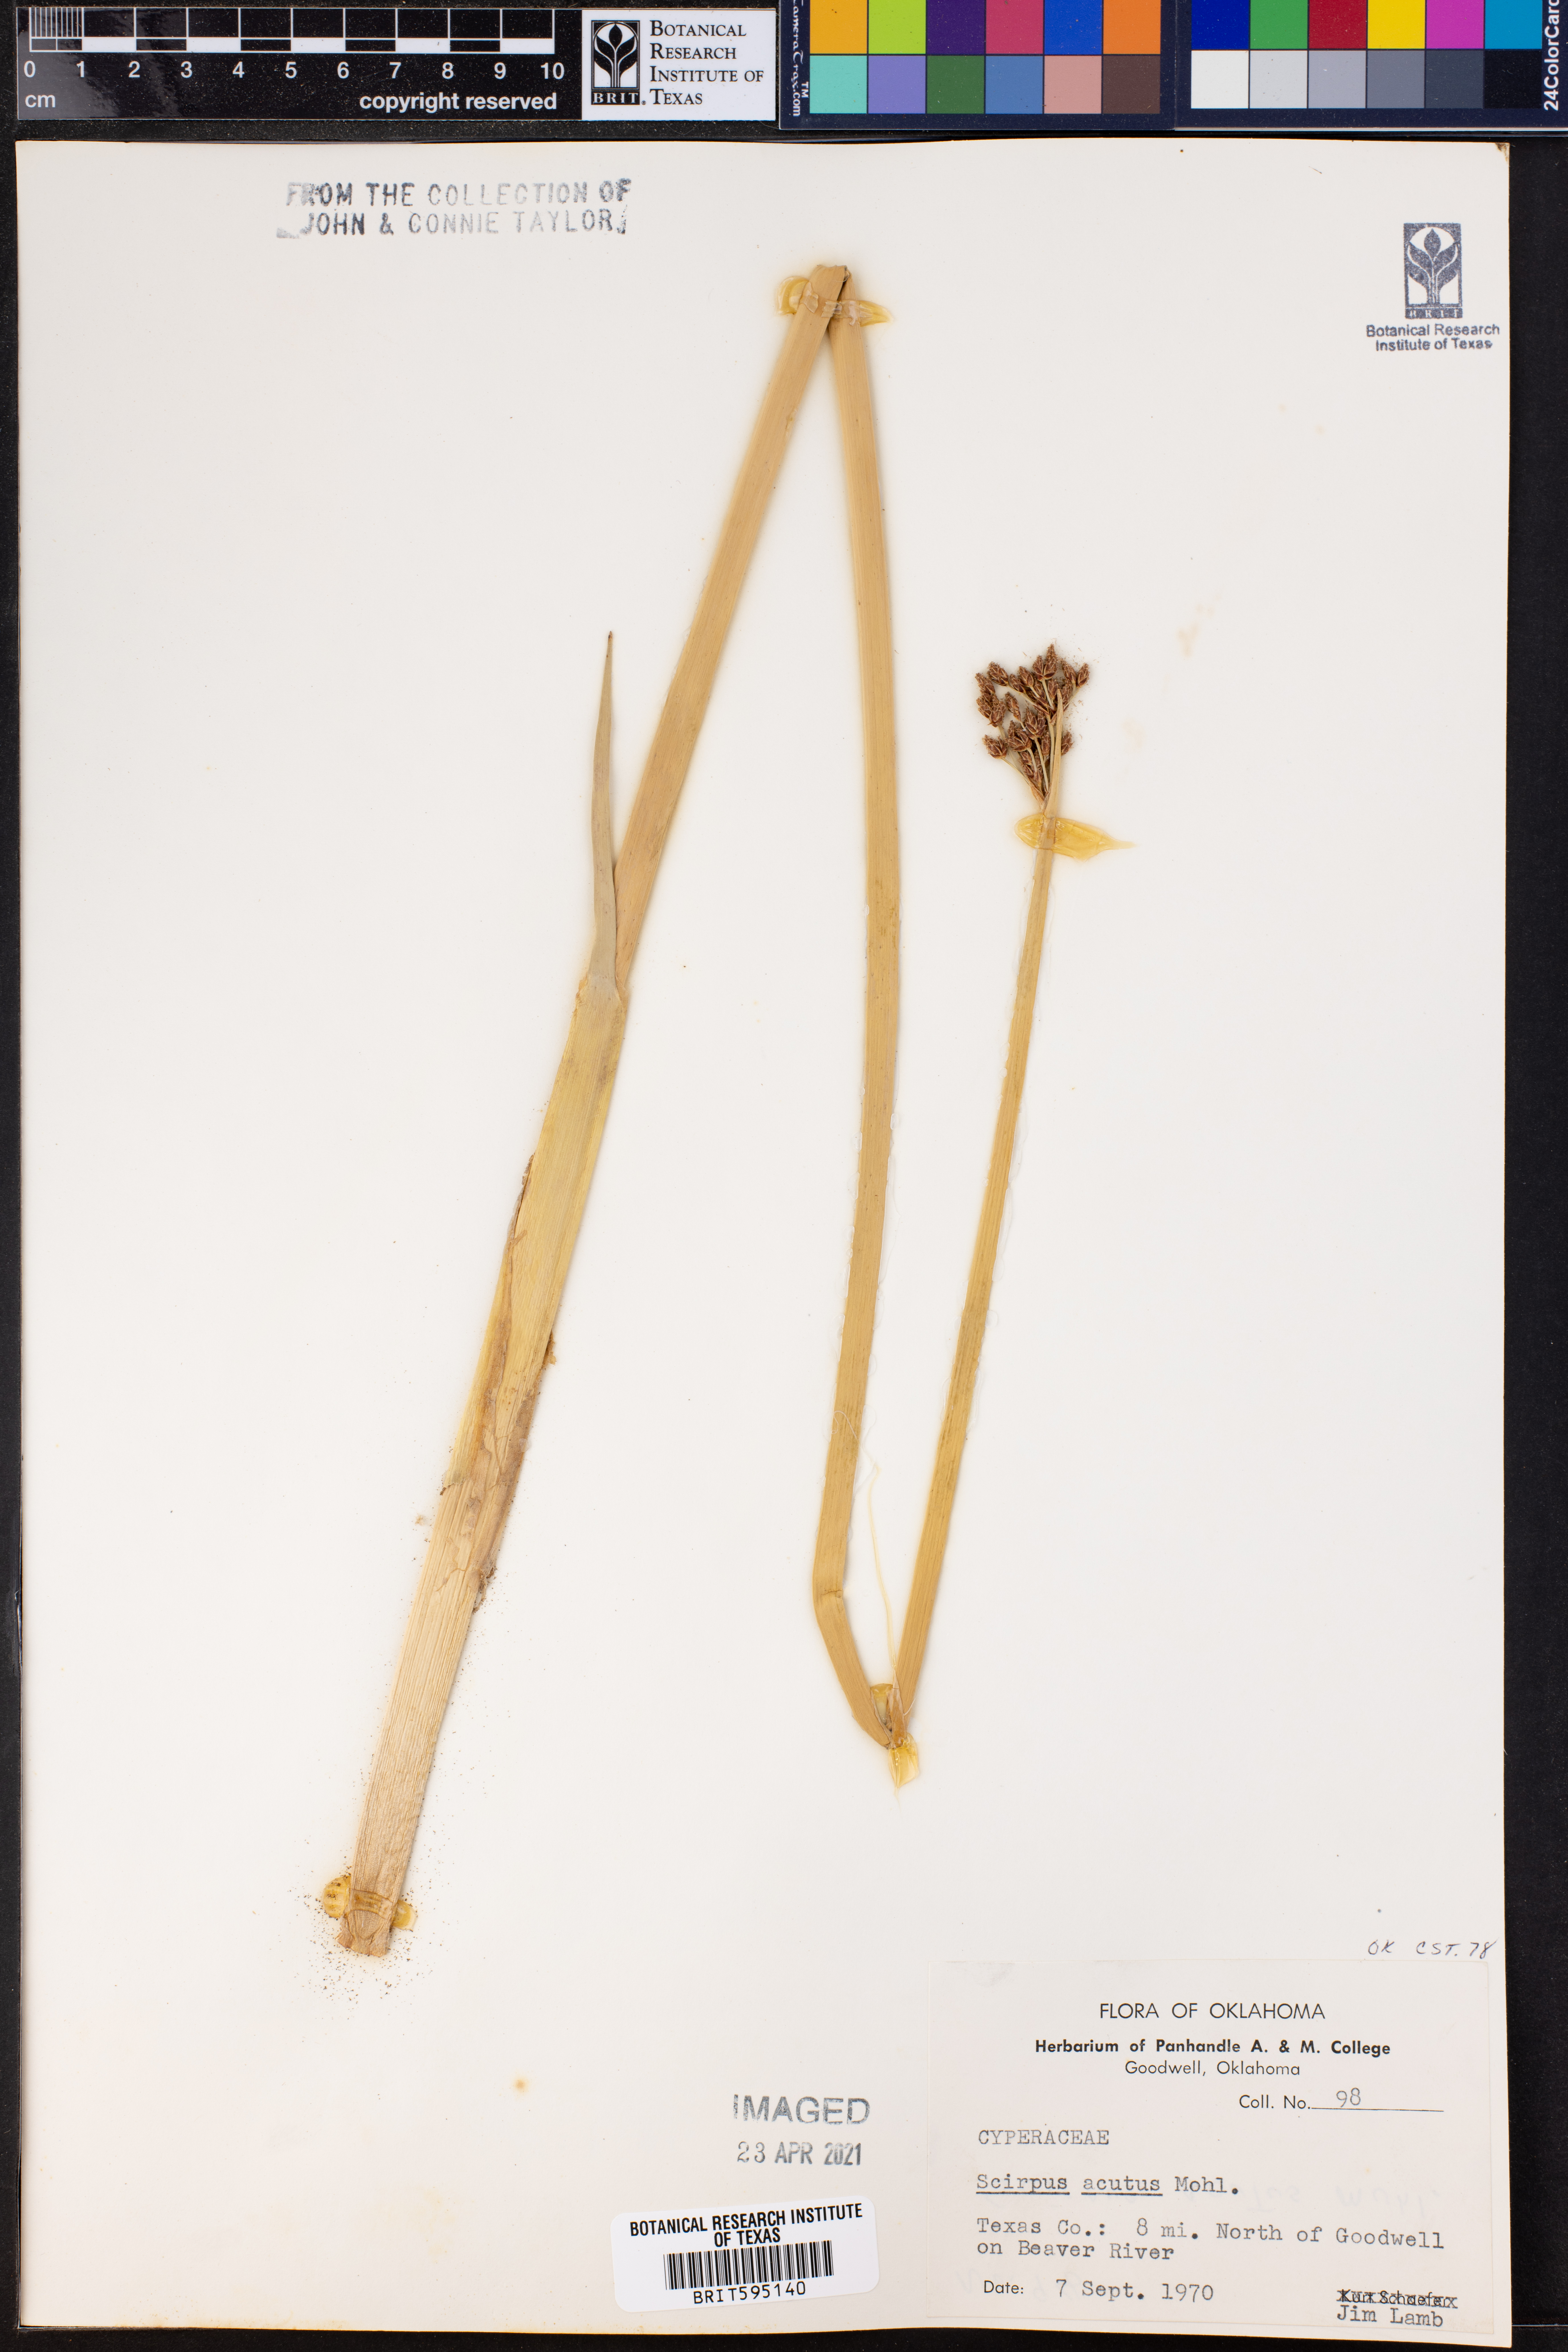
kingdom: Plantae
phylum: Tracheophyta
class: Liliopsida
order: Poales
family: Cyperaceae
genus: Scirpus
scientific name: Scirpus acutus
